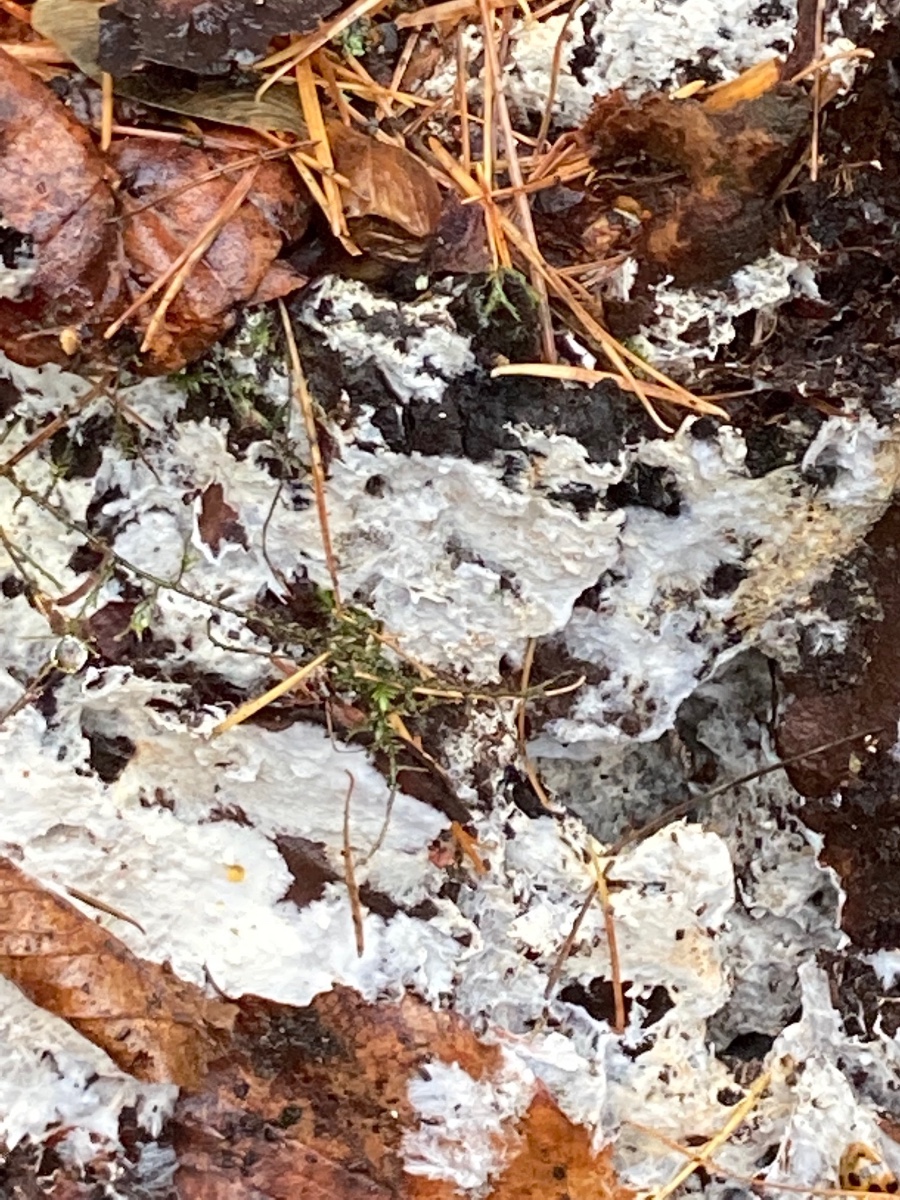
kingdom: Fungi
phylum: Basidiomycota
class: Agaricomycetes
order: Atheliales
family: Atheliaceae
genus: Leptosporomyces
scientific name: Leptosporomyces fuscostratus
